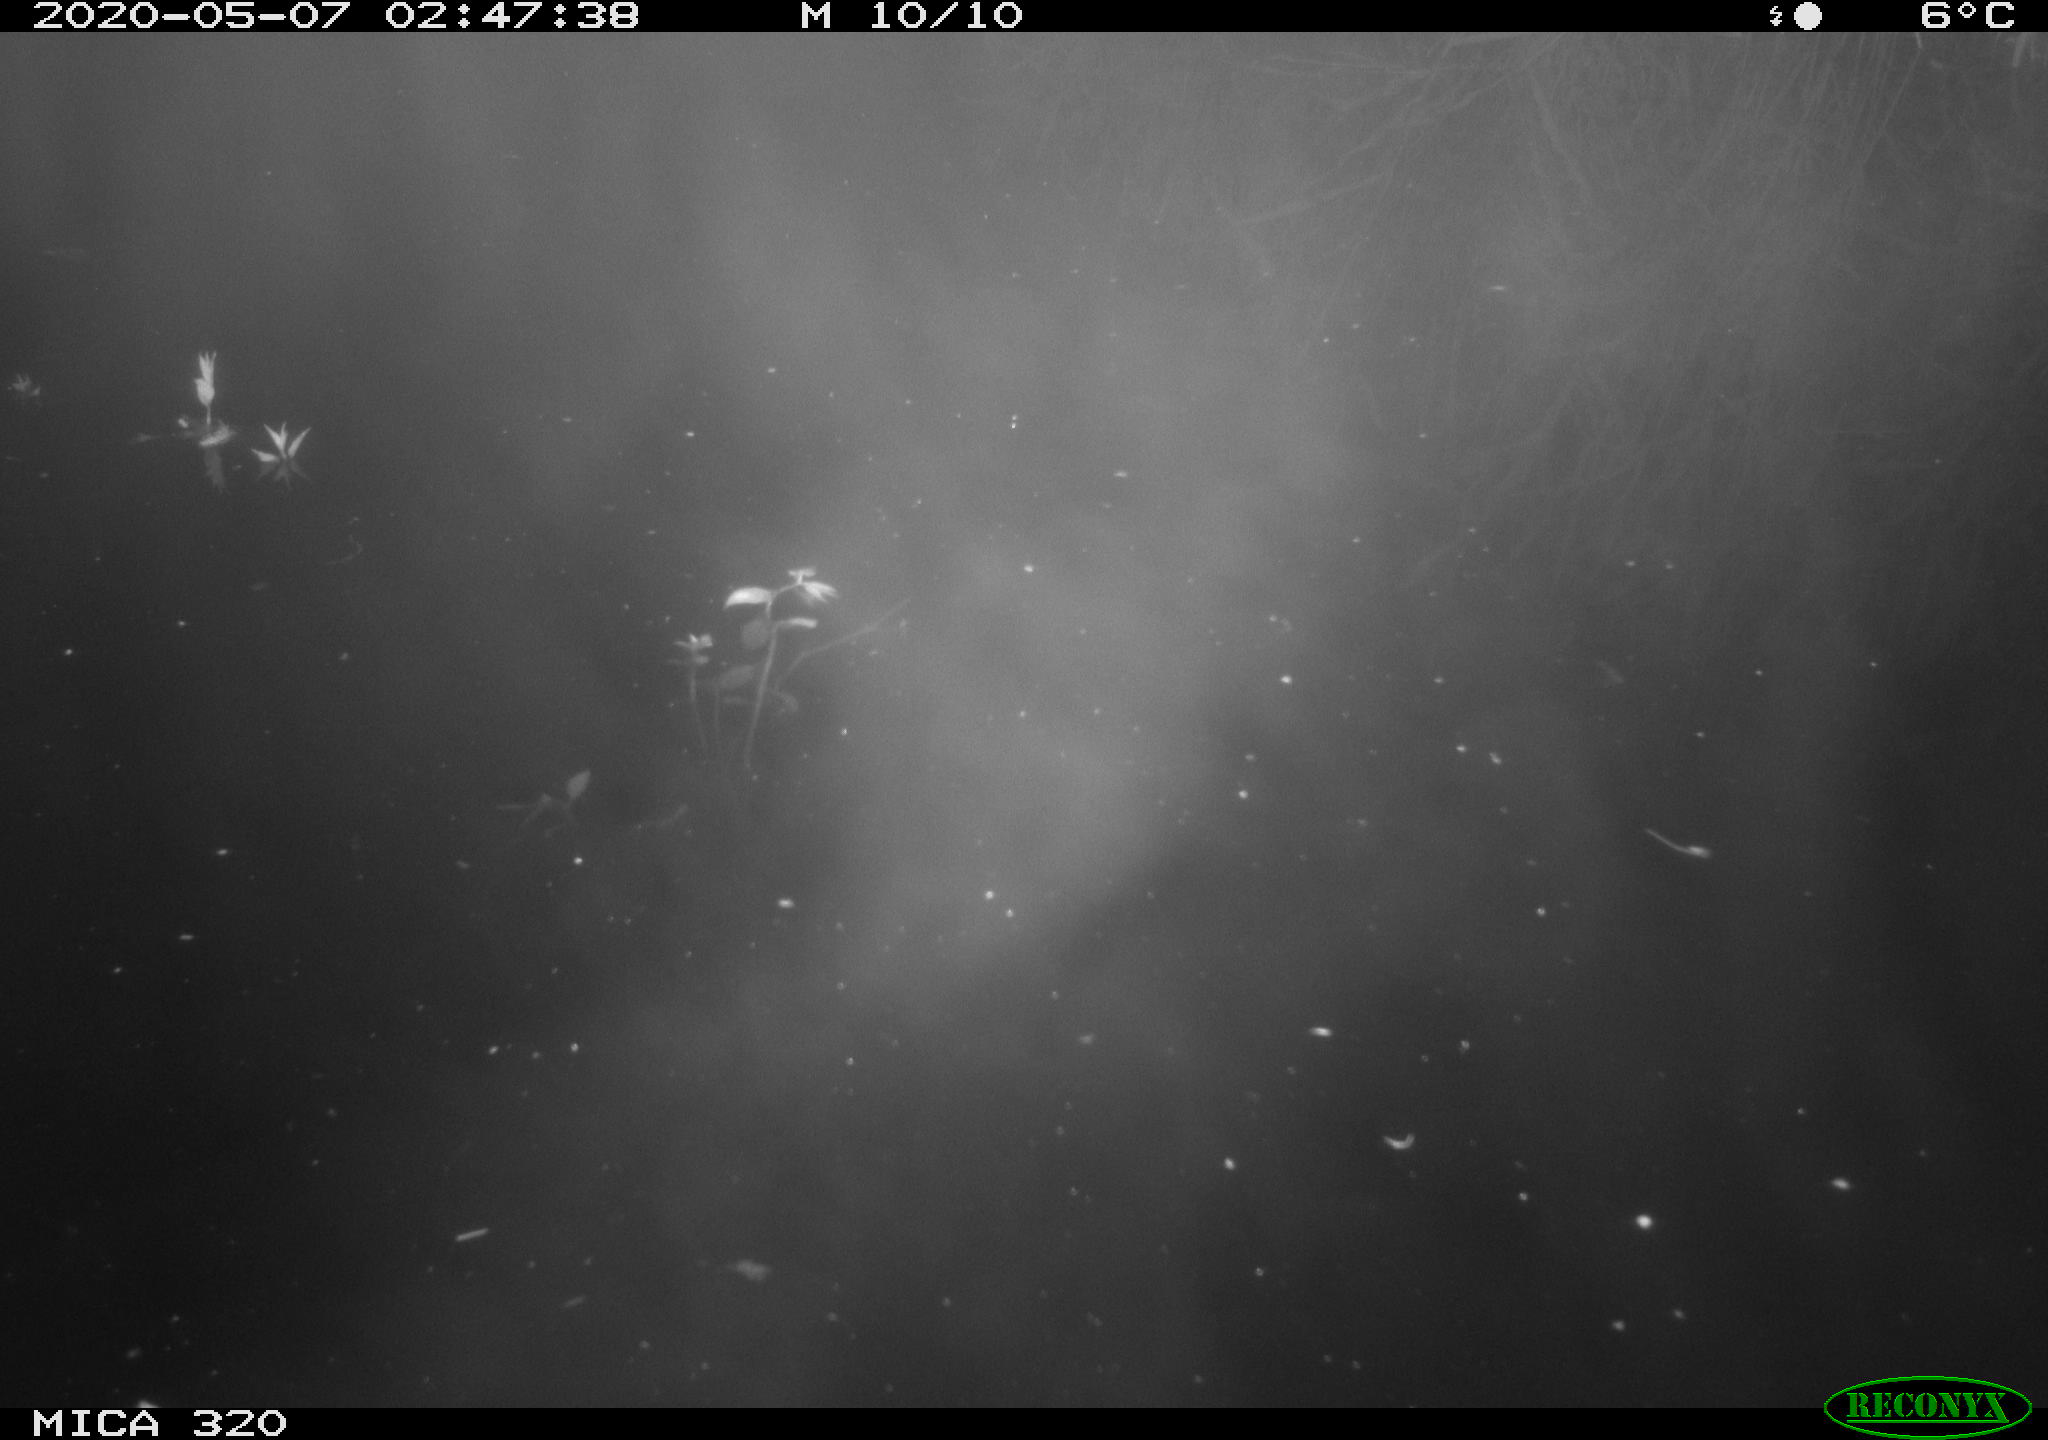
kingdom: Animalia
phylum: Chordata
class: Aves
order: Anseriformes
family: Anatidae
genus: Anas
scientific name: Anas platyrhynchos
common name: Mallard
